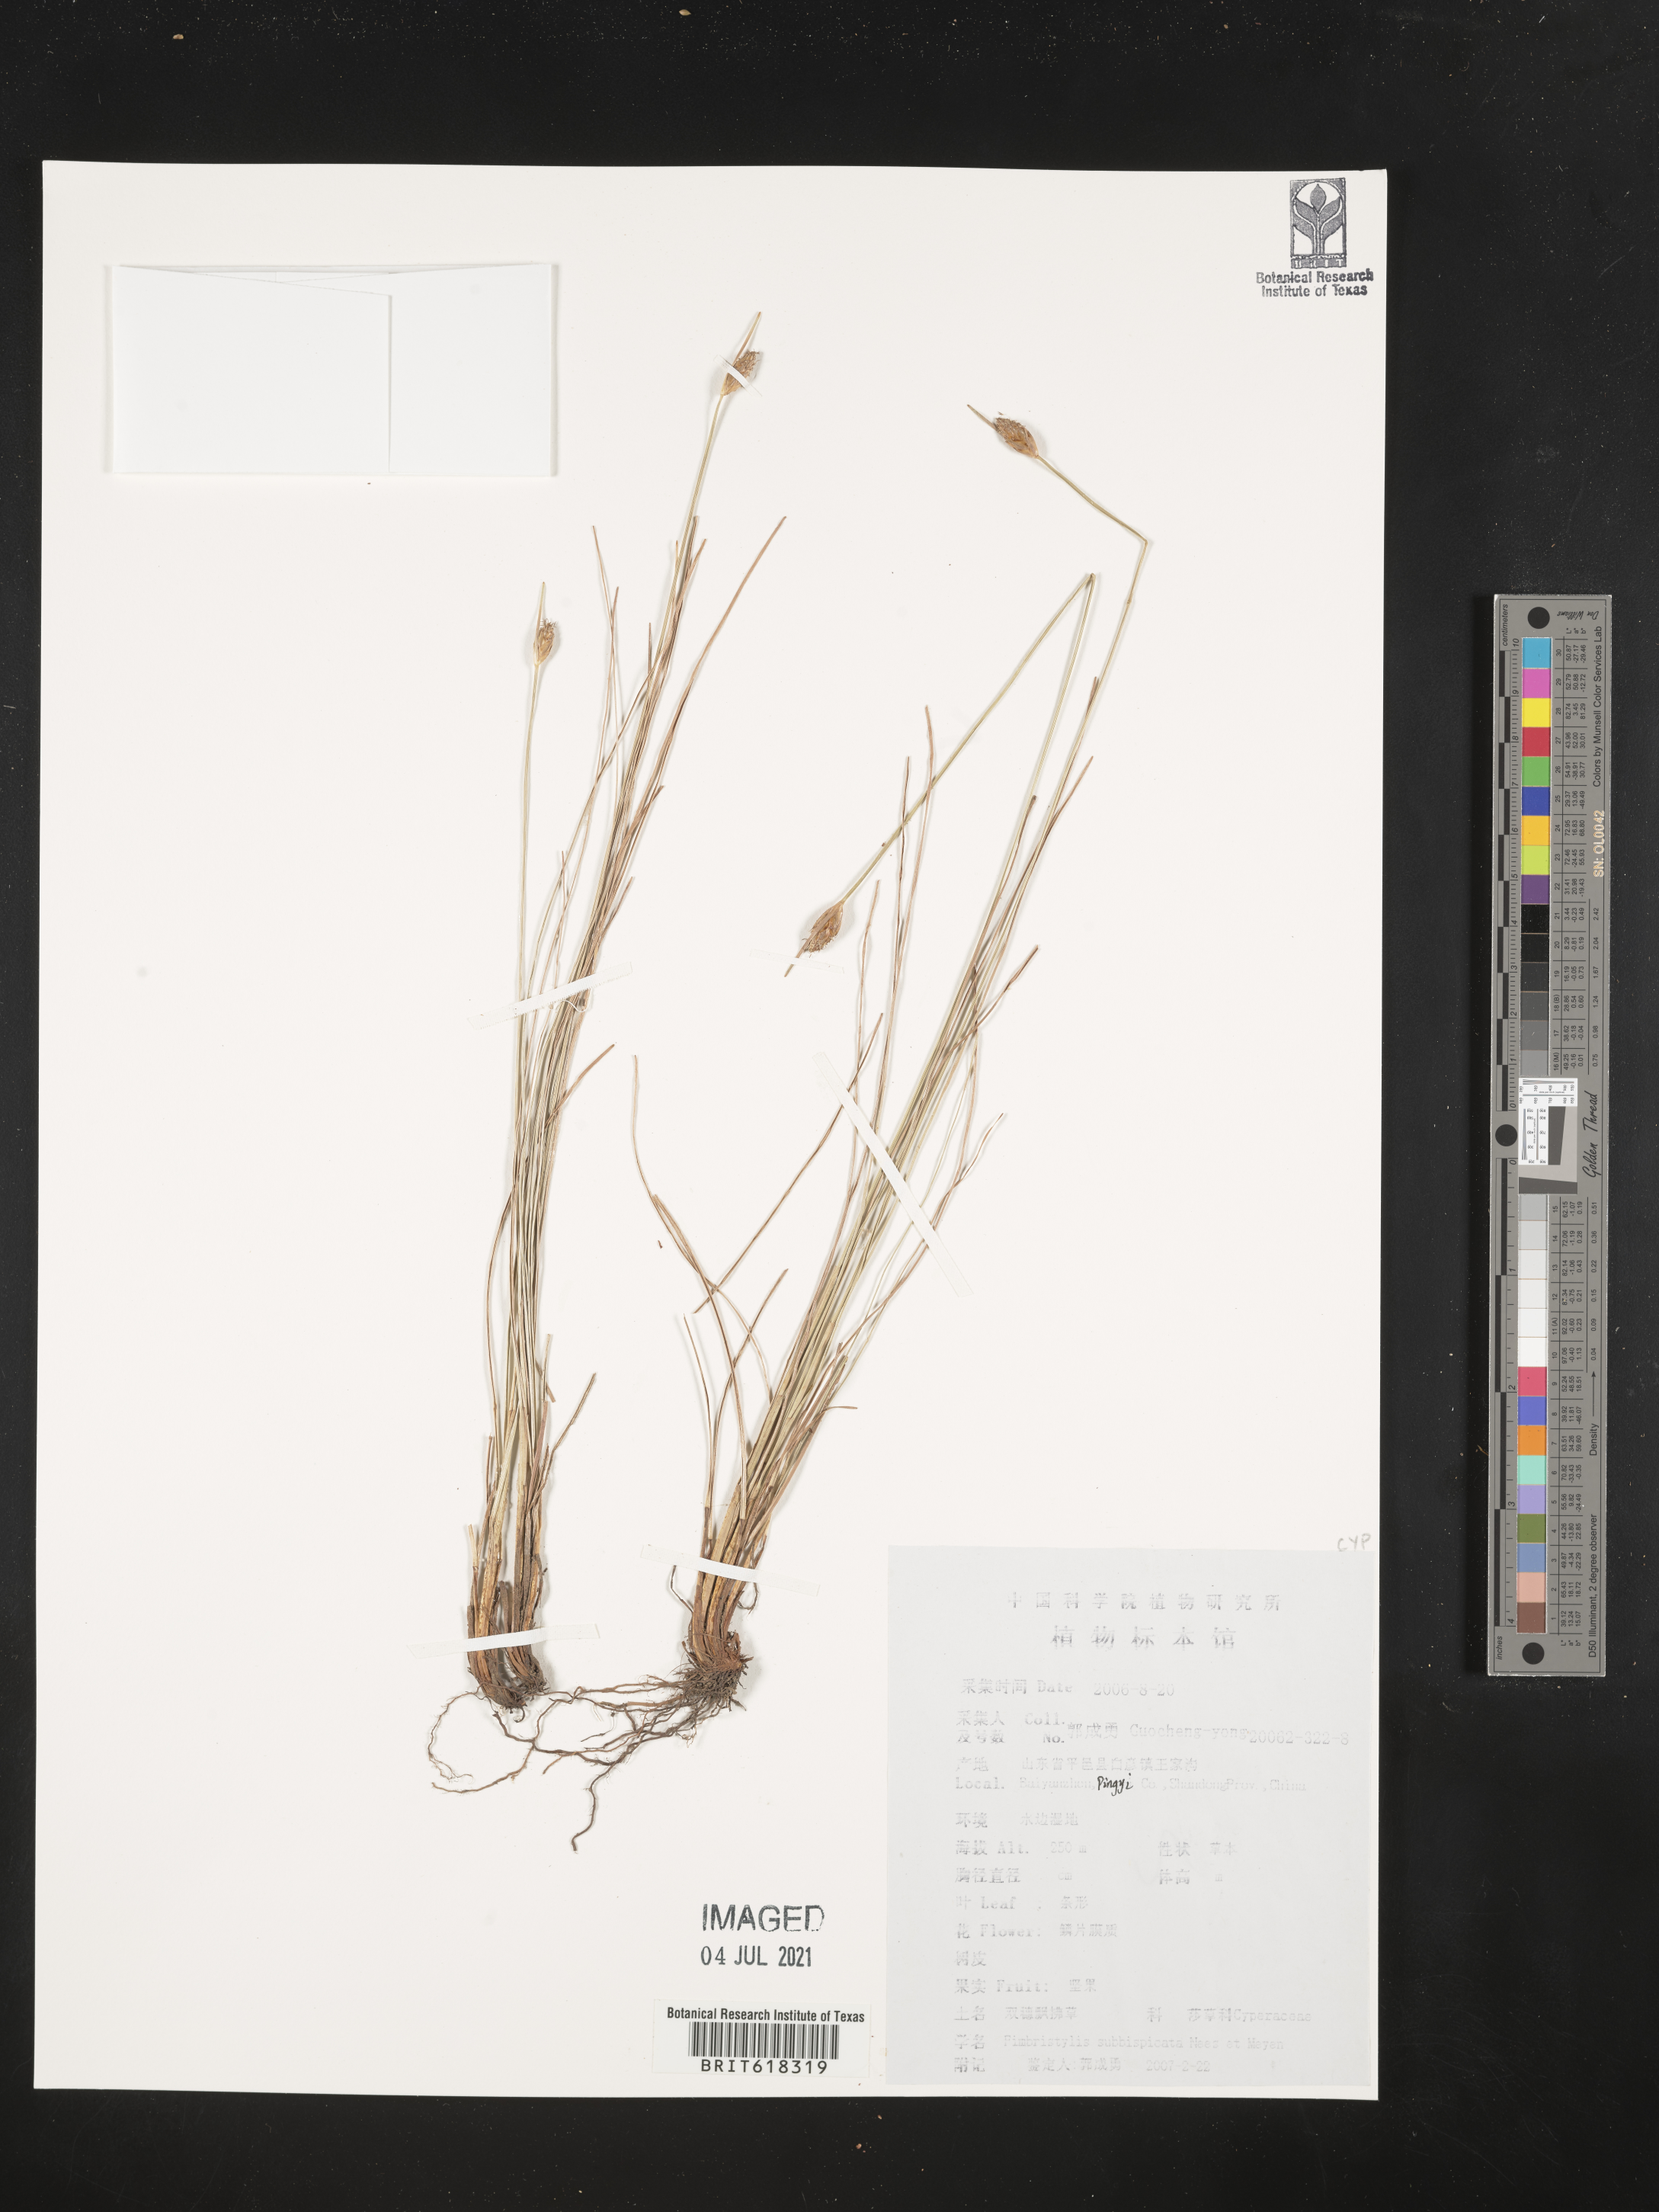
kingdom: Plantae
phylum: Tracheophyta
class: Liliopsida
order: Poales
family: Cyperaceae
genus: Fimbristylis
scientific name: Fimbristylis tristachya
